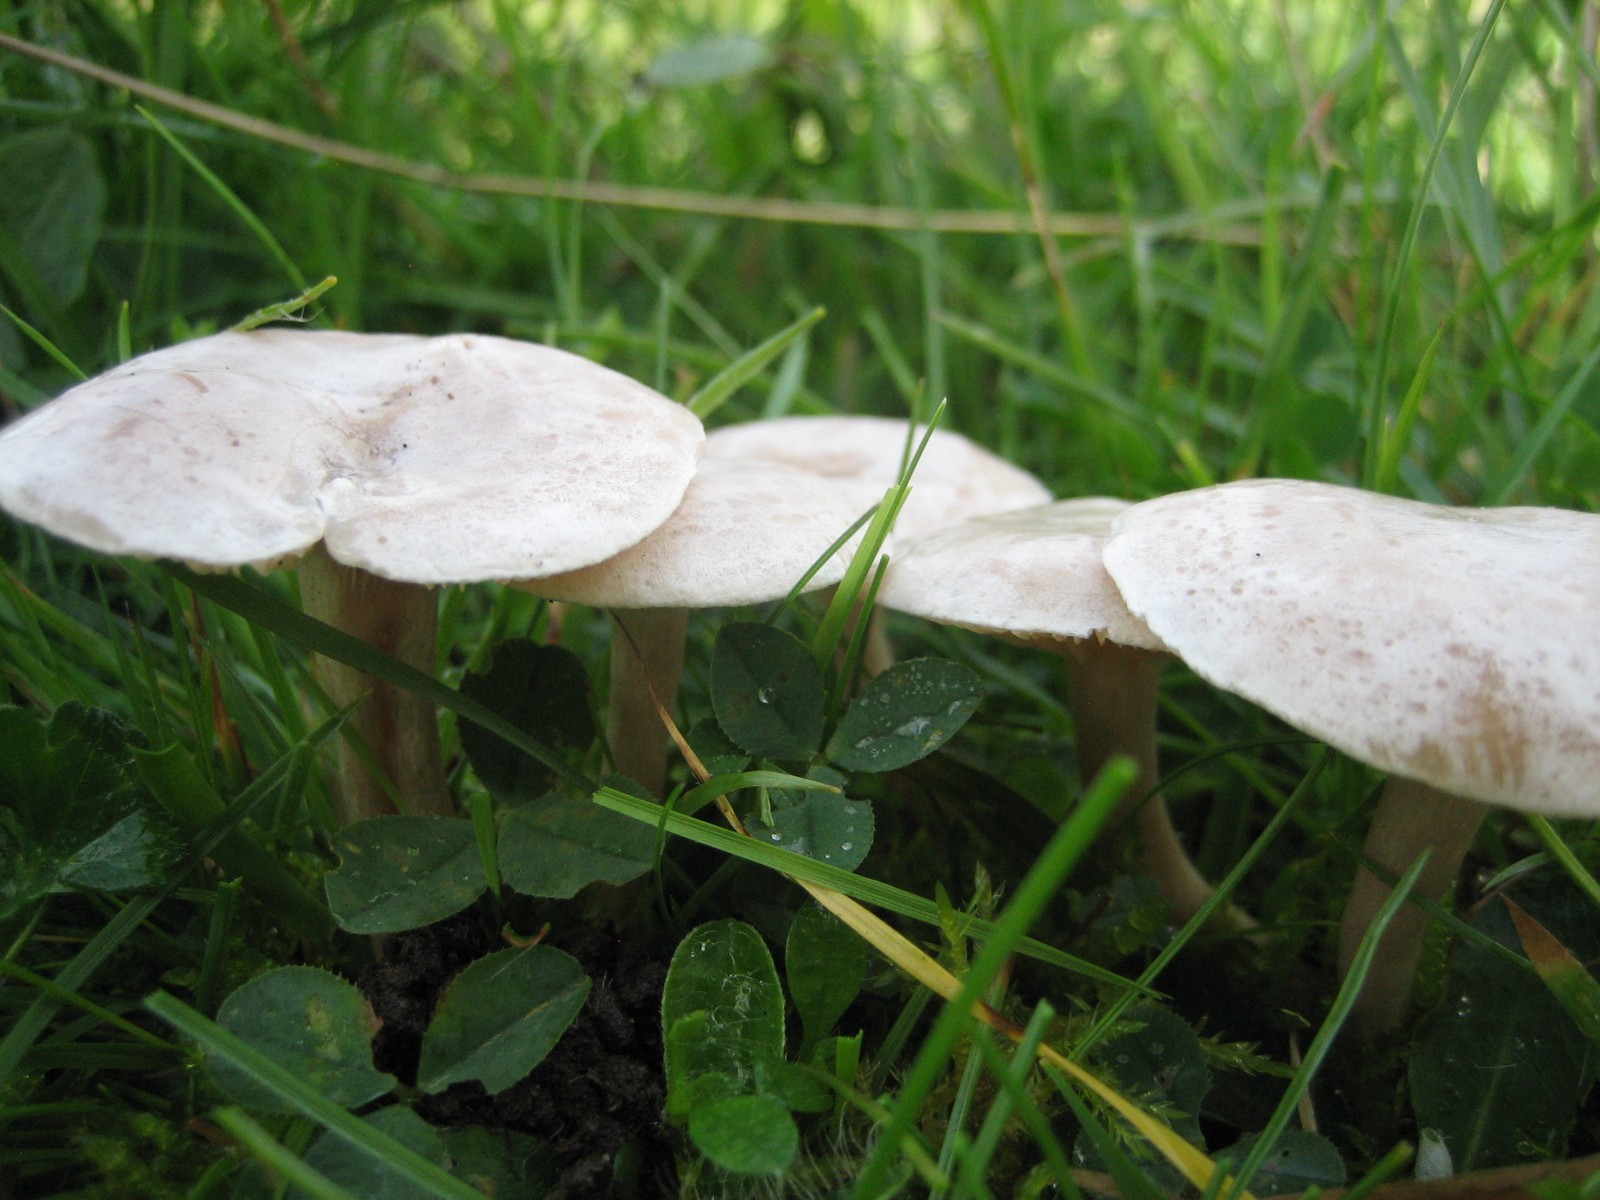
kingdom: Fungi
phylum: Basidiomycota
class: Agaricomycetes
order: Agaricales
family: Tricholomataceae
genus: Clitocybe
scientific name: Clitocybe
